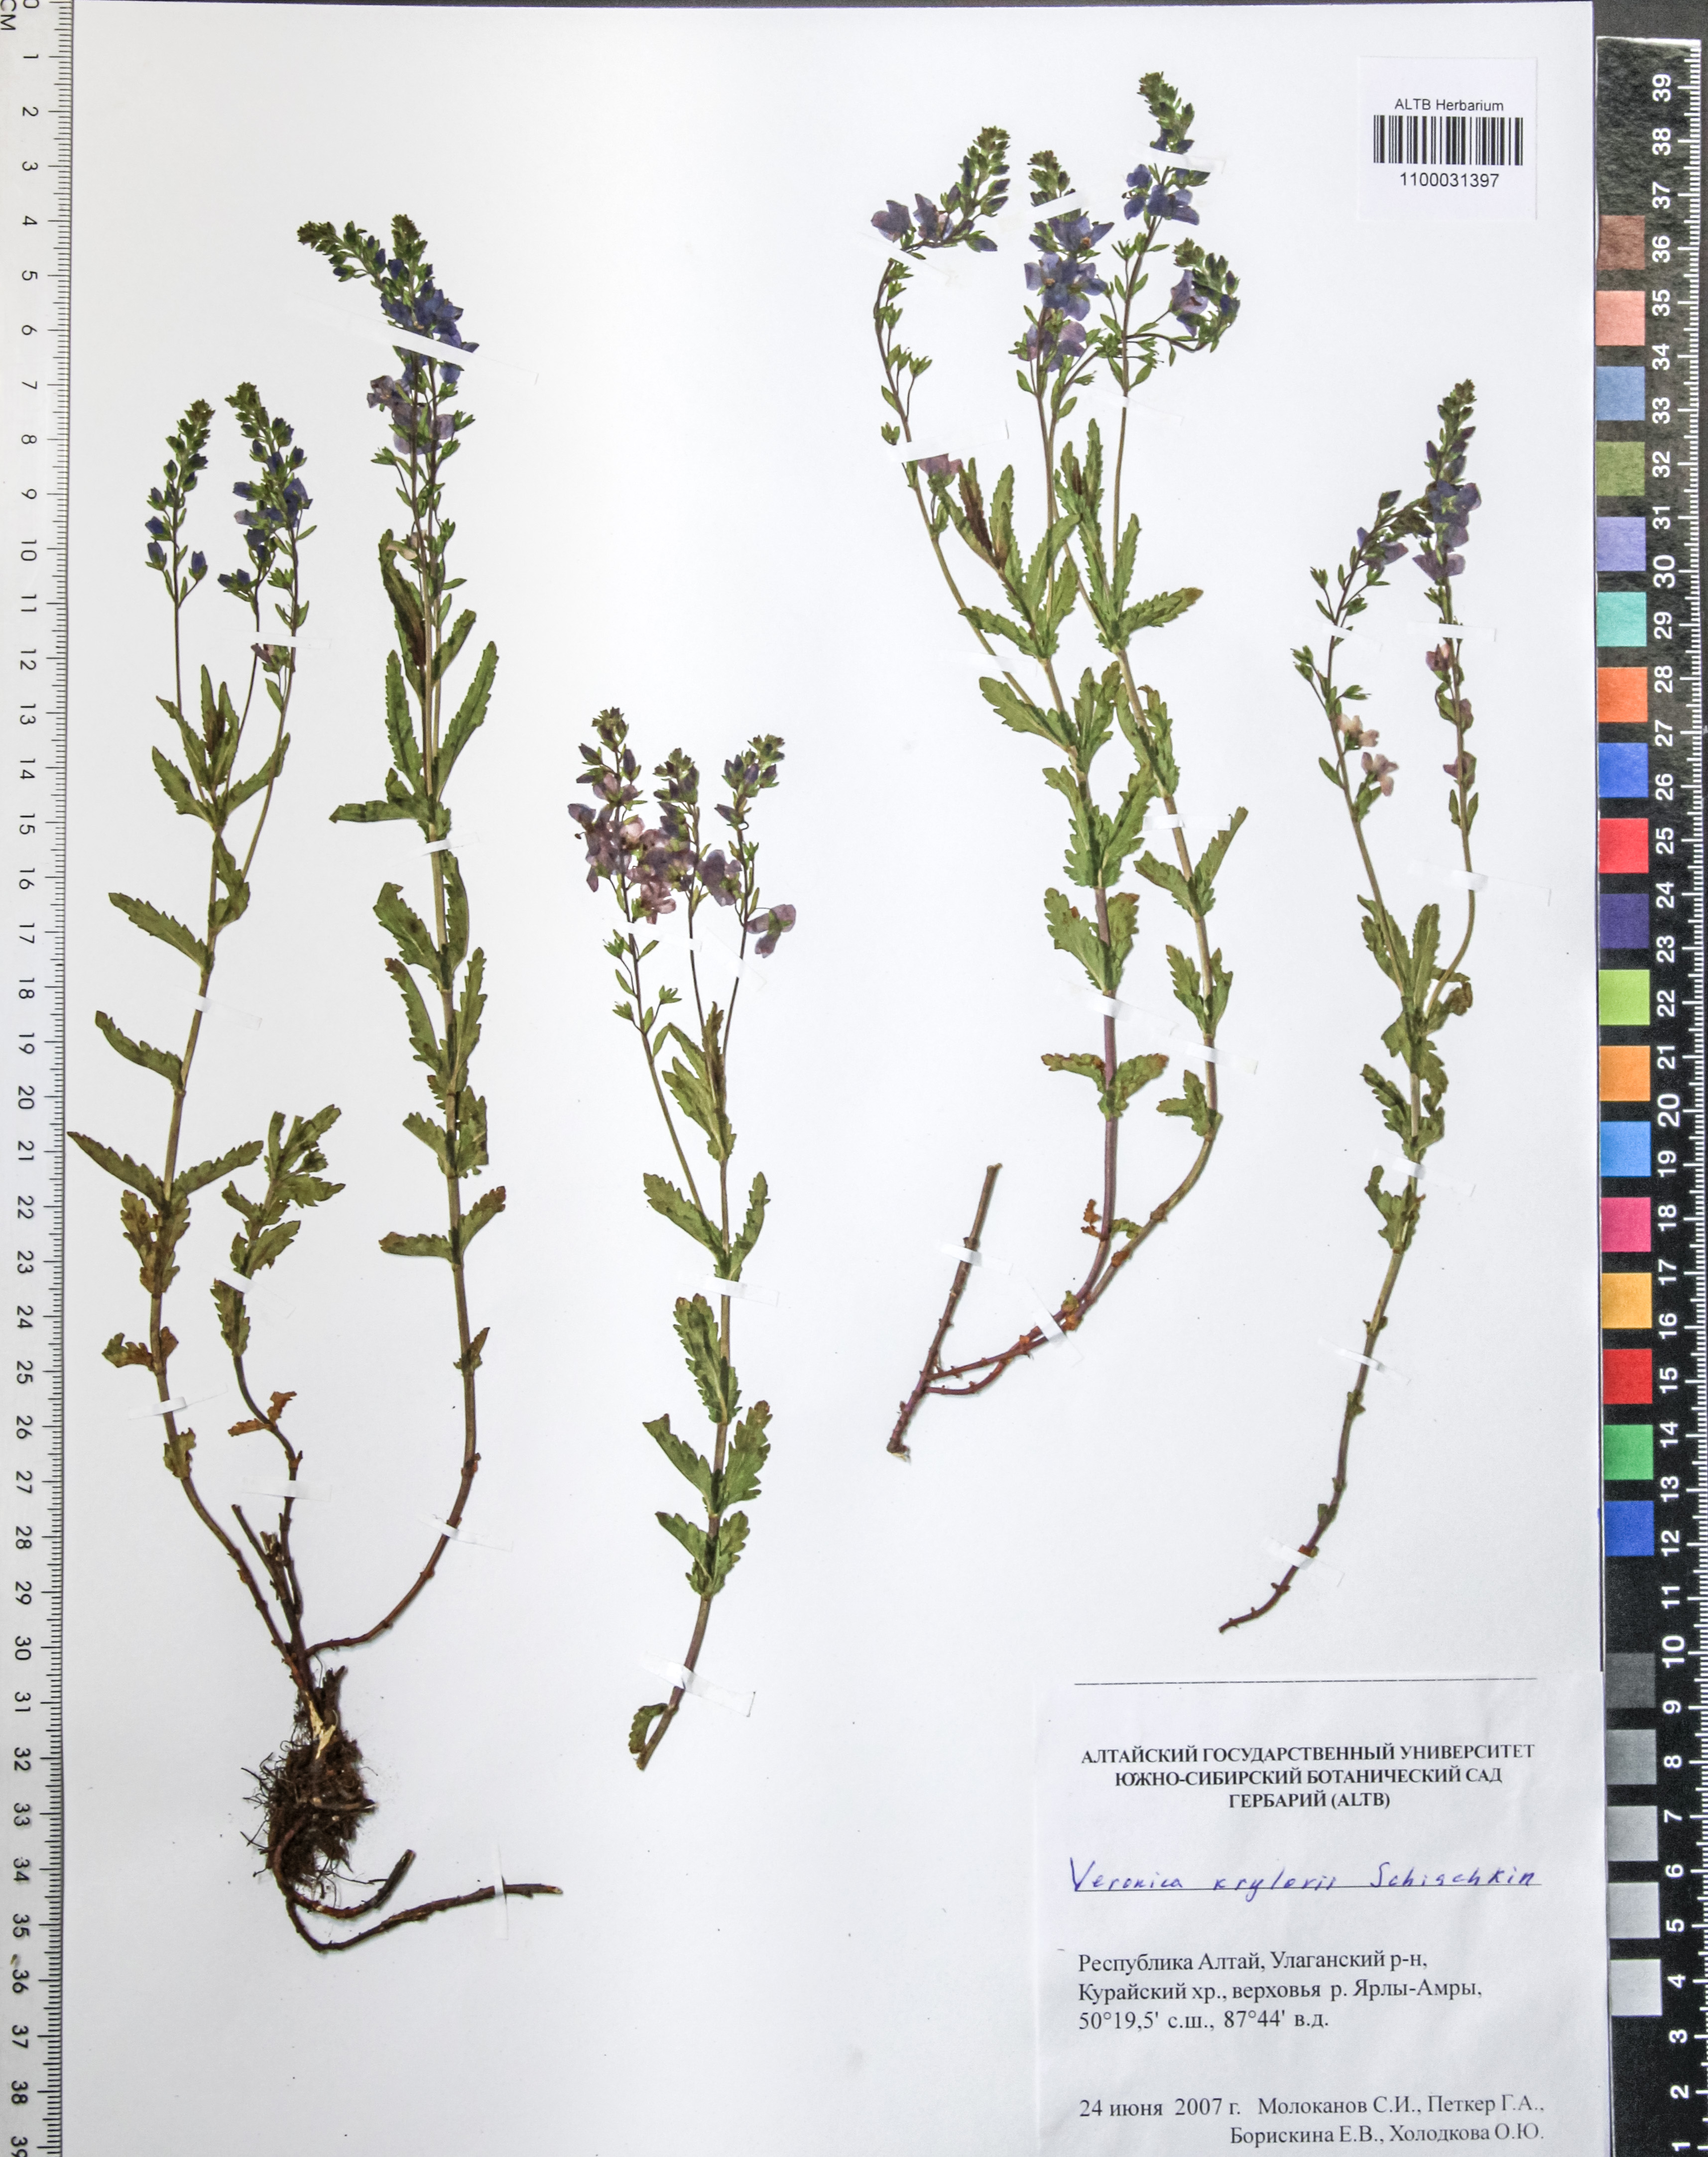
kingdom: Plantae
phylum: Tracheophyta
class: Magnoliopsida
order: Lamiales
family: Plantaginaceae
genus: Veronica
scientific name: Veronica krylovii
